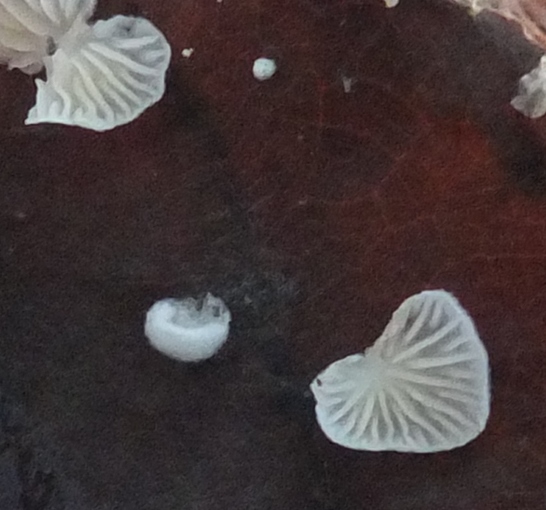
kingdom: Fungi
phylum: Basidiomycota
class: Agaricomycetes
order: Agaricales
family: Crepidotaceae
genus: Crepidotus
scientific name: Crepidotus epibryus
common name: førne-muslingesvamp
